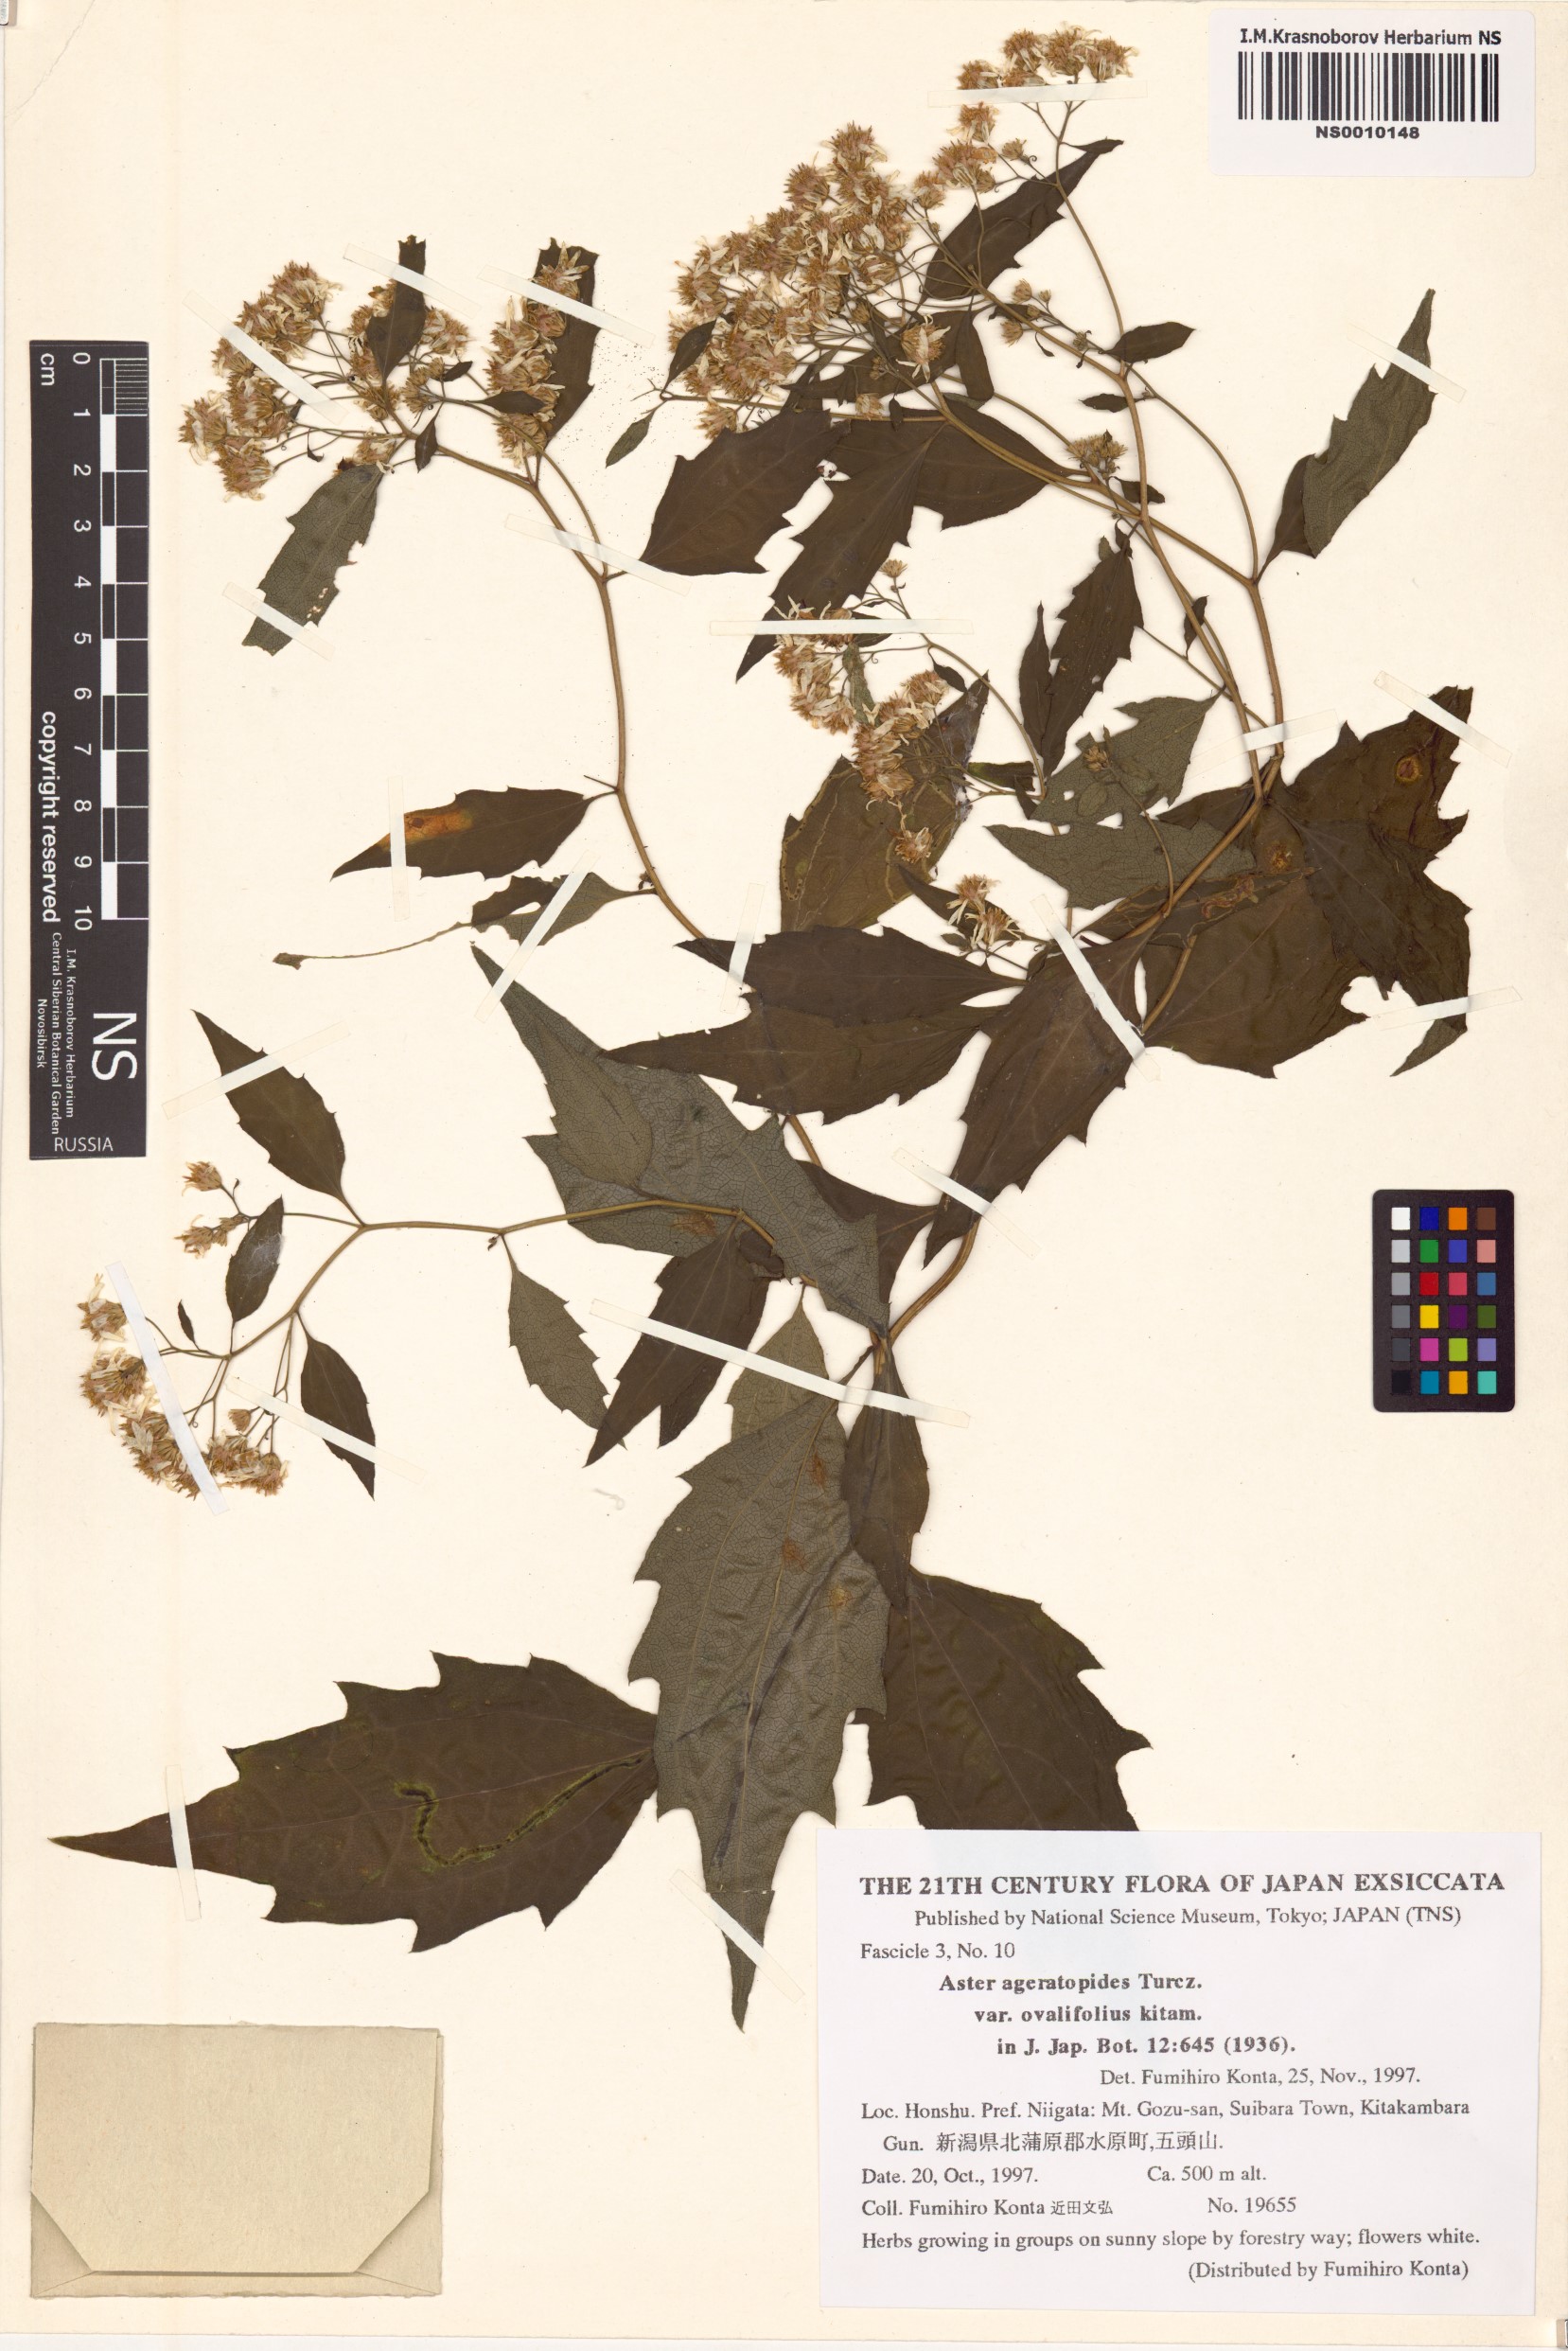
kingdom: Plantae
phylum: Tracheophyta
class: Magnoliopsida
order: Asterales
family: Asteraceae
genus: Aster
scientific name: Aster ageratoides
